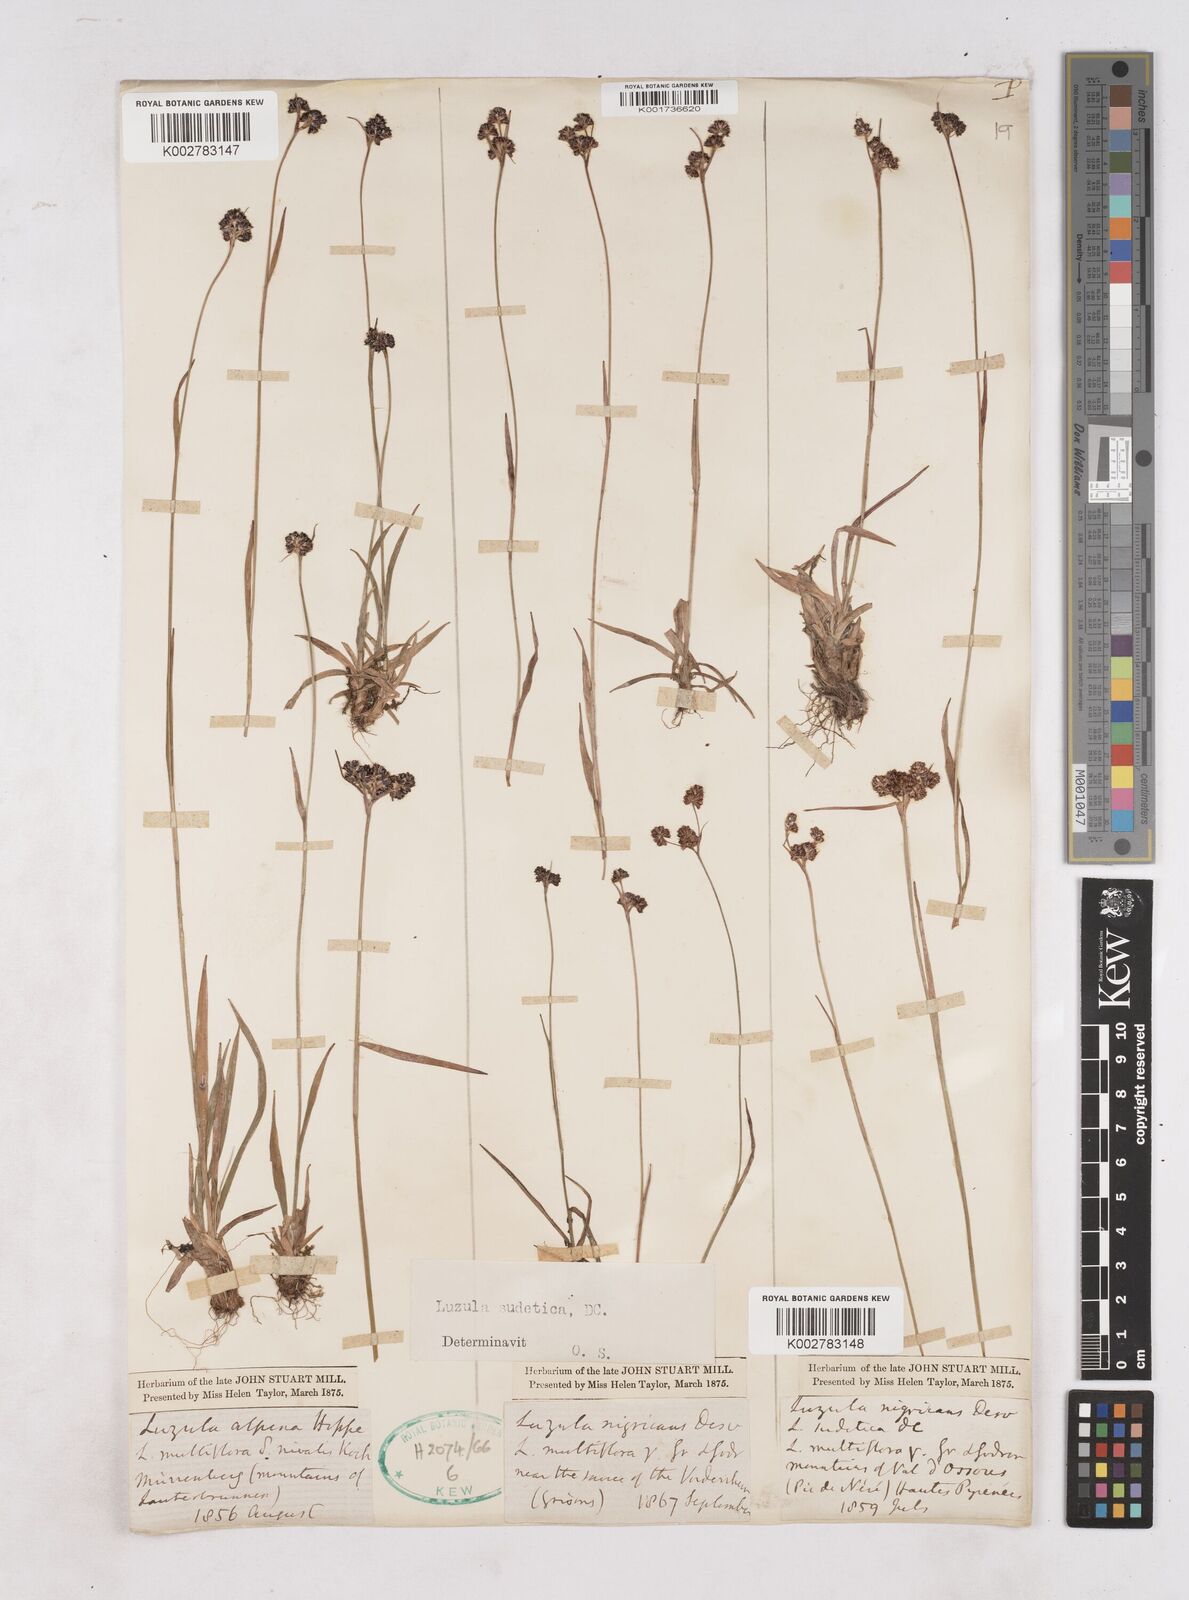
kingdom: Plantae
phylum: Tracheophyta
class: Liliopsida
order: Poales
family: Juncaceae
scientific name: Juncaceae
